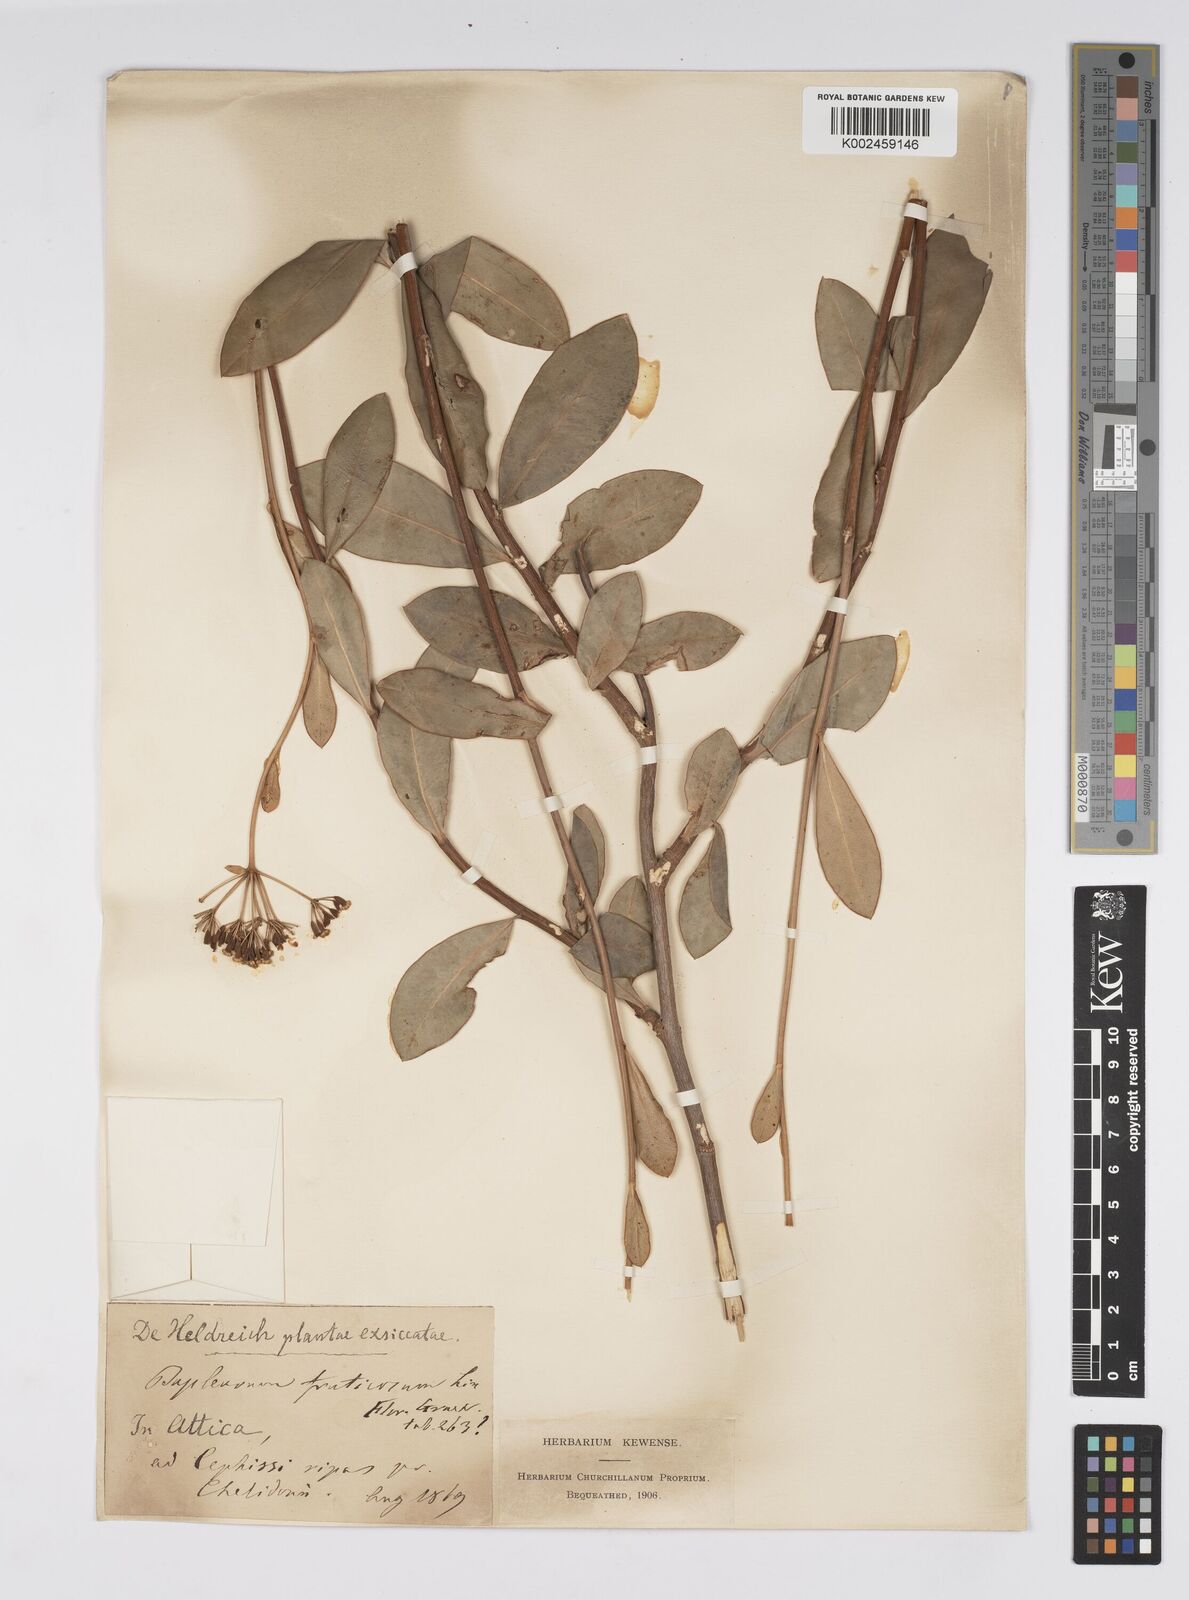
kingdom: Plantae
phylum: Tracheophyta
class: Magnoliopsida
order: Apiales
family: Apiaceae
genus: Bupleurum
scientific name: Bupleurum fruticosum
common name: Shrubby hare's-ear
